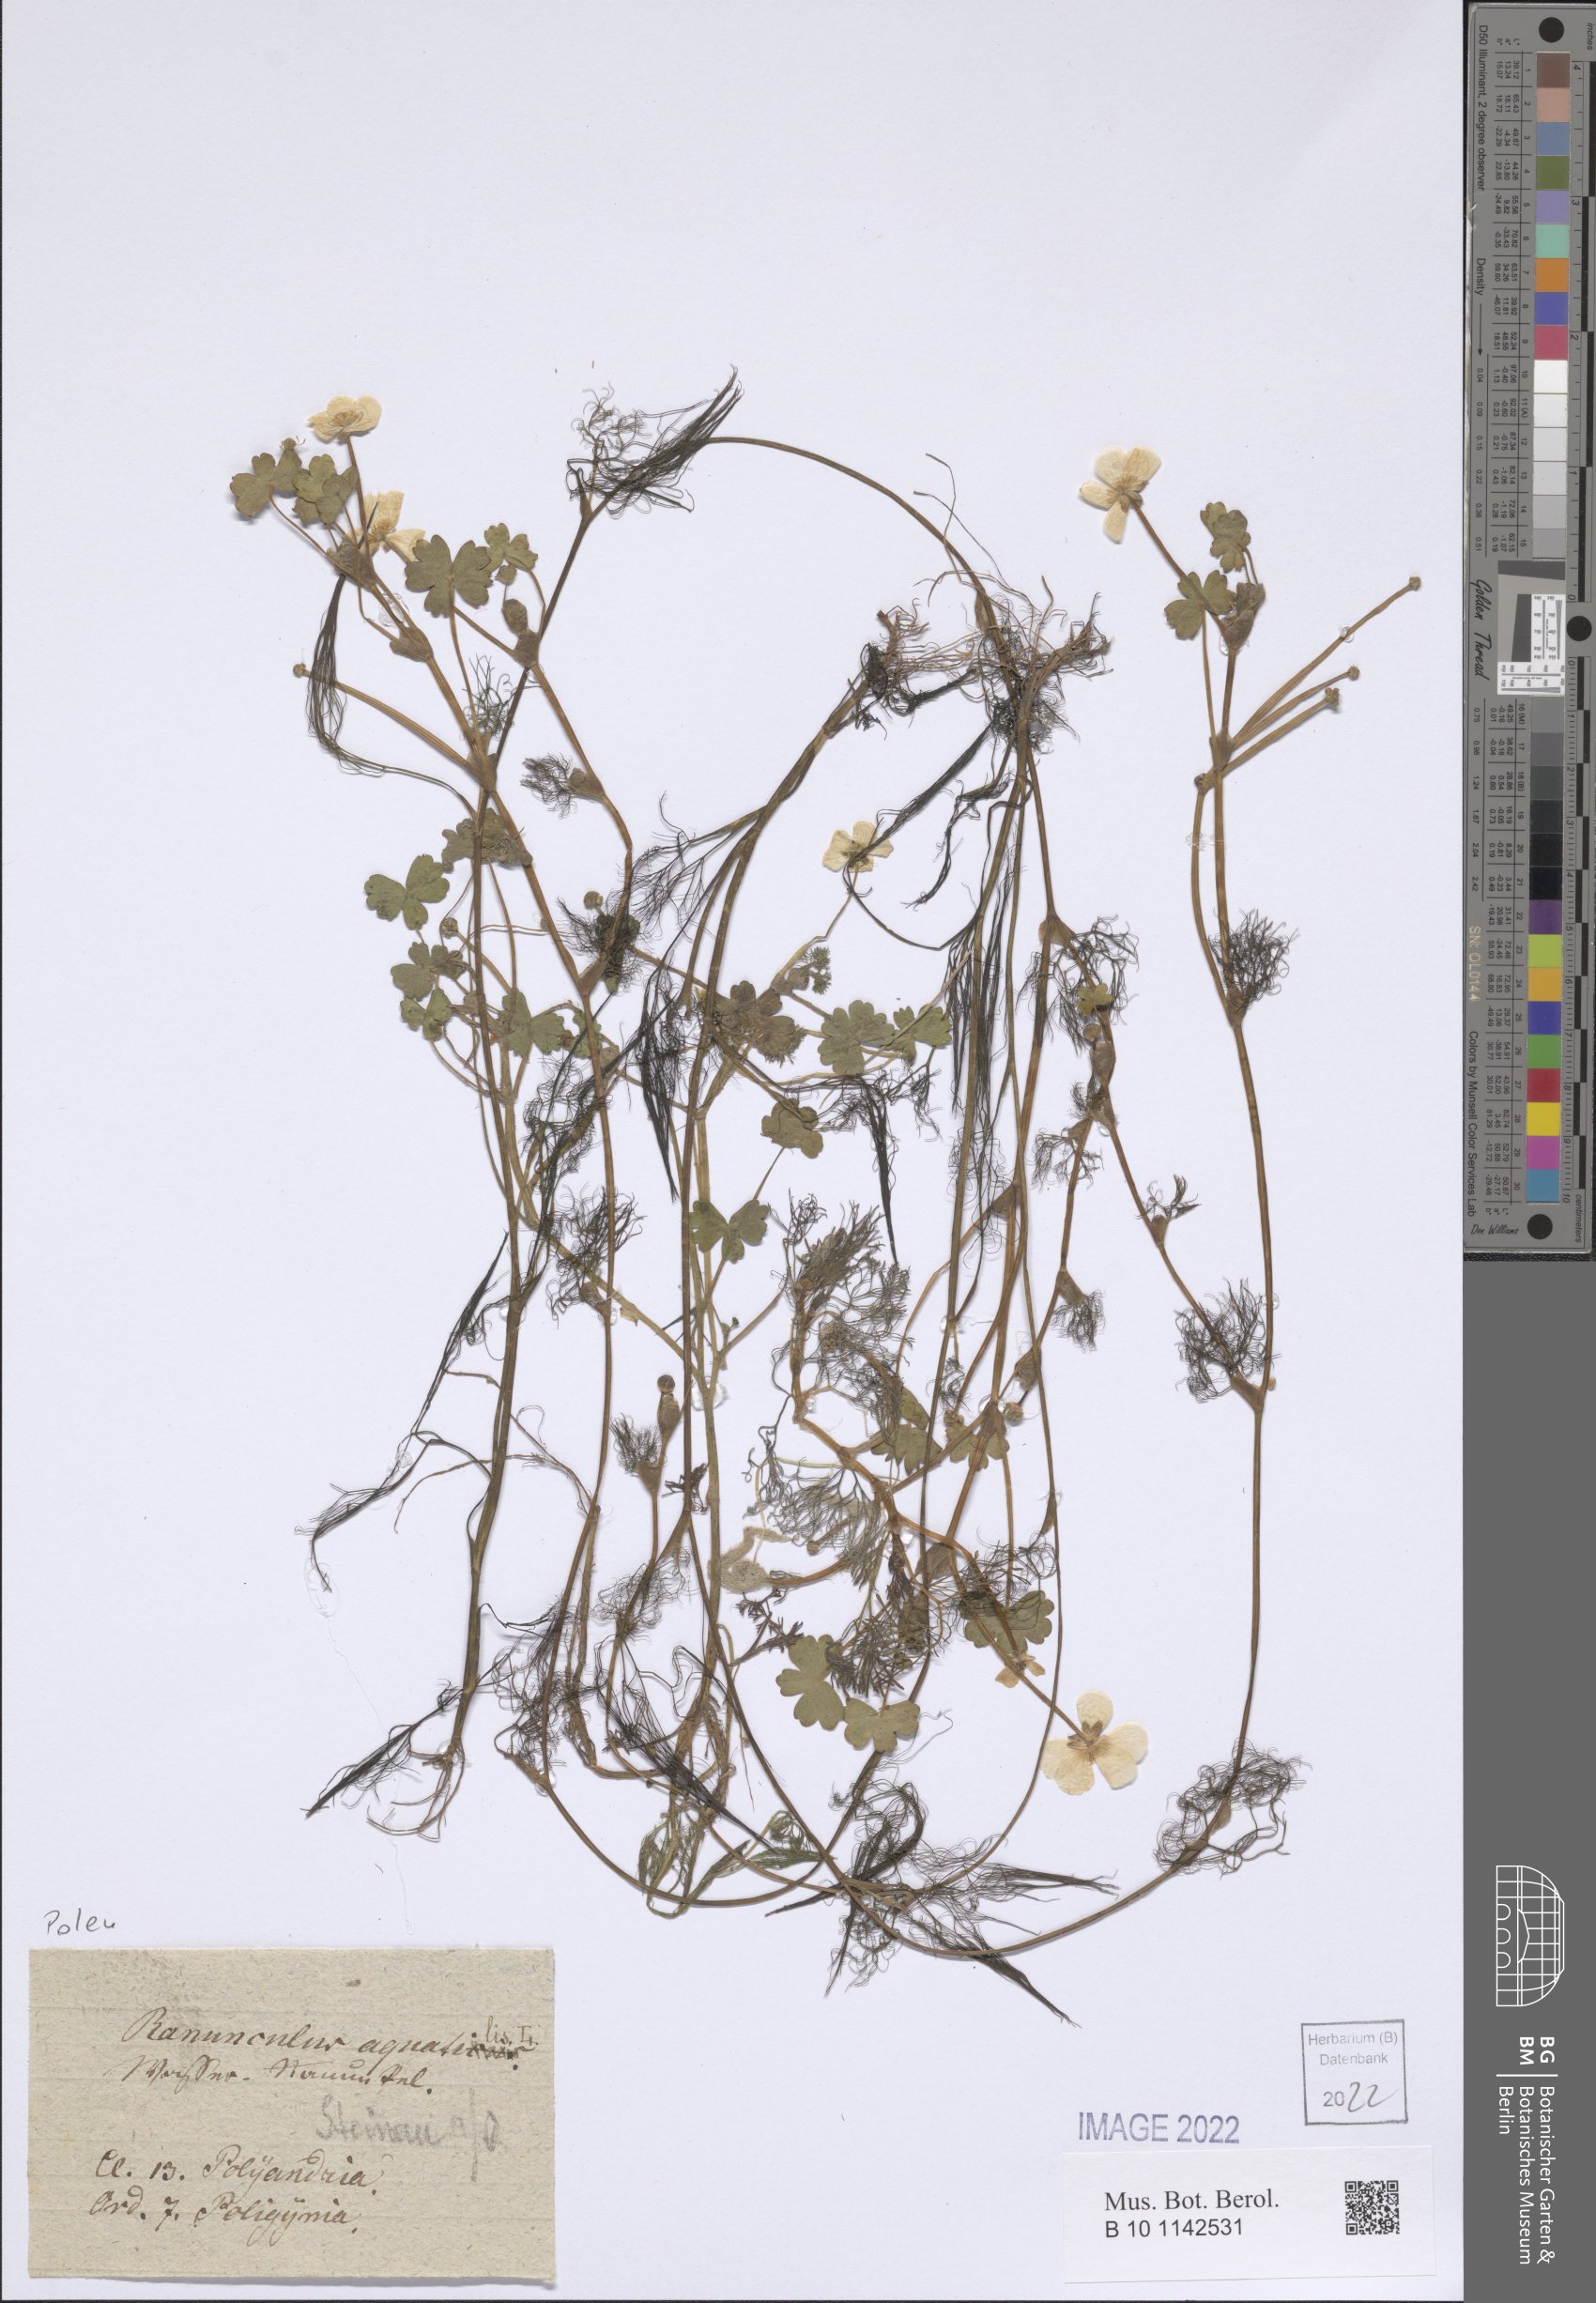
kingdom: Plantae
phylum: Tracheophyta
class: Magnoliopsida
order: Ranunculales
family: Ranunculaceae
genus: Ranunculus
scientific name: Ranunculus peltatus
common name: Pond water-crowfoot
